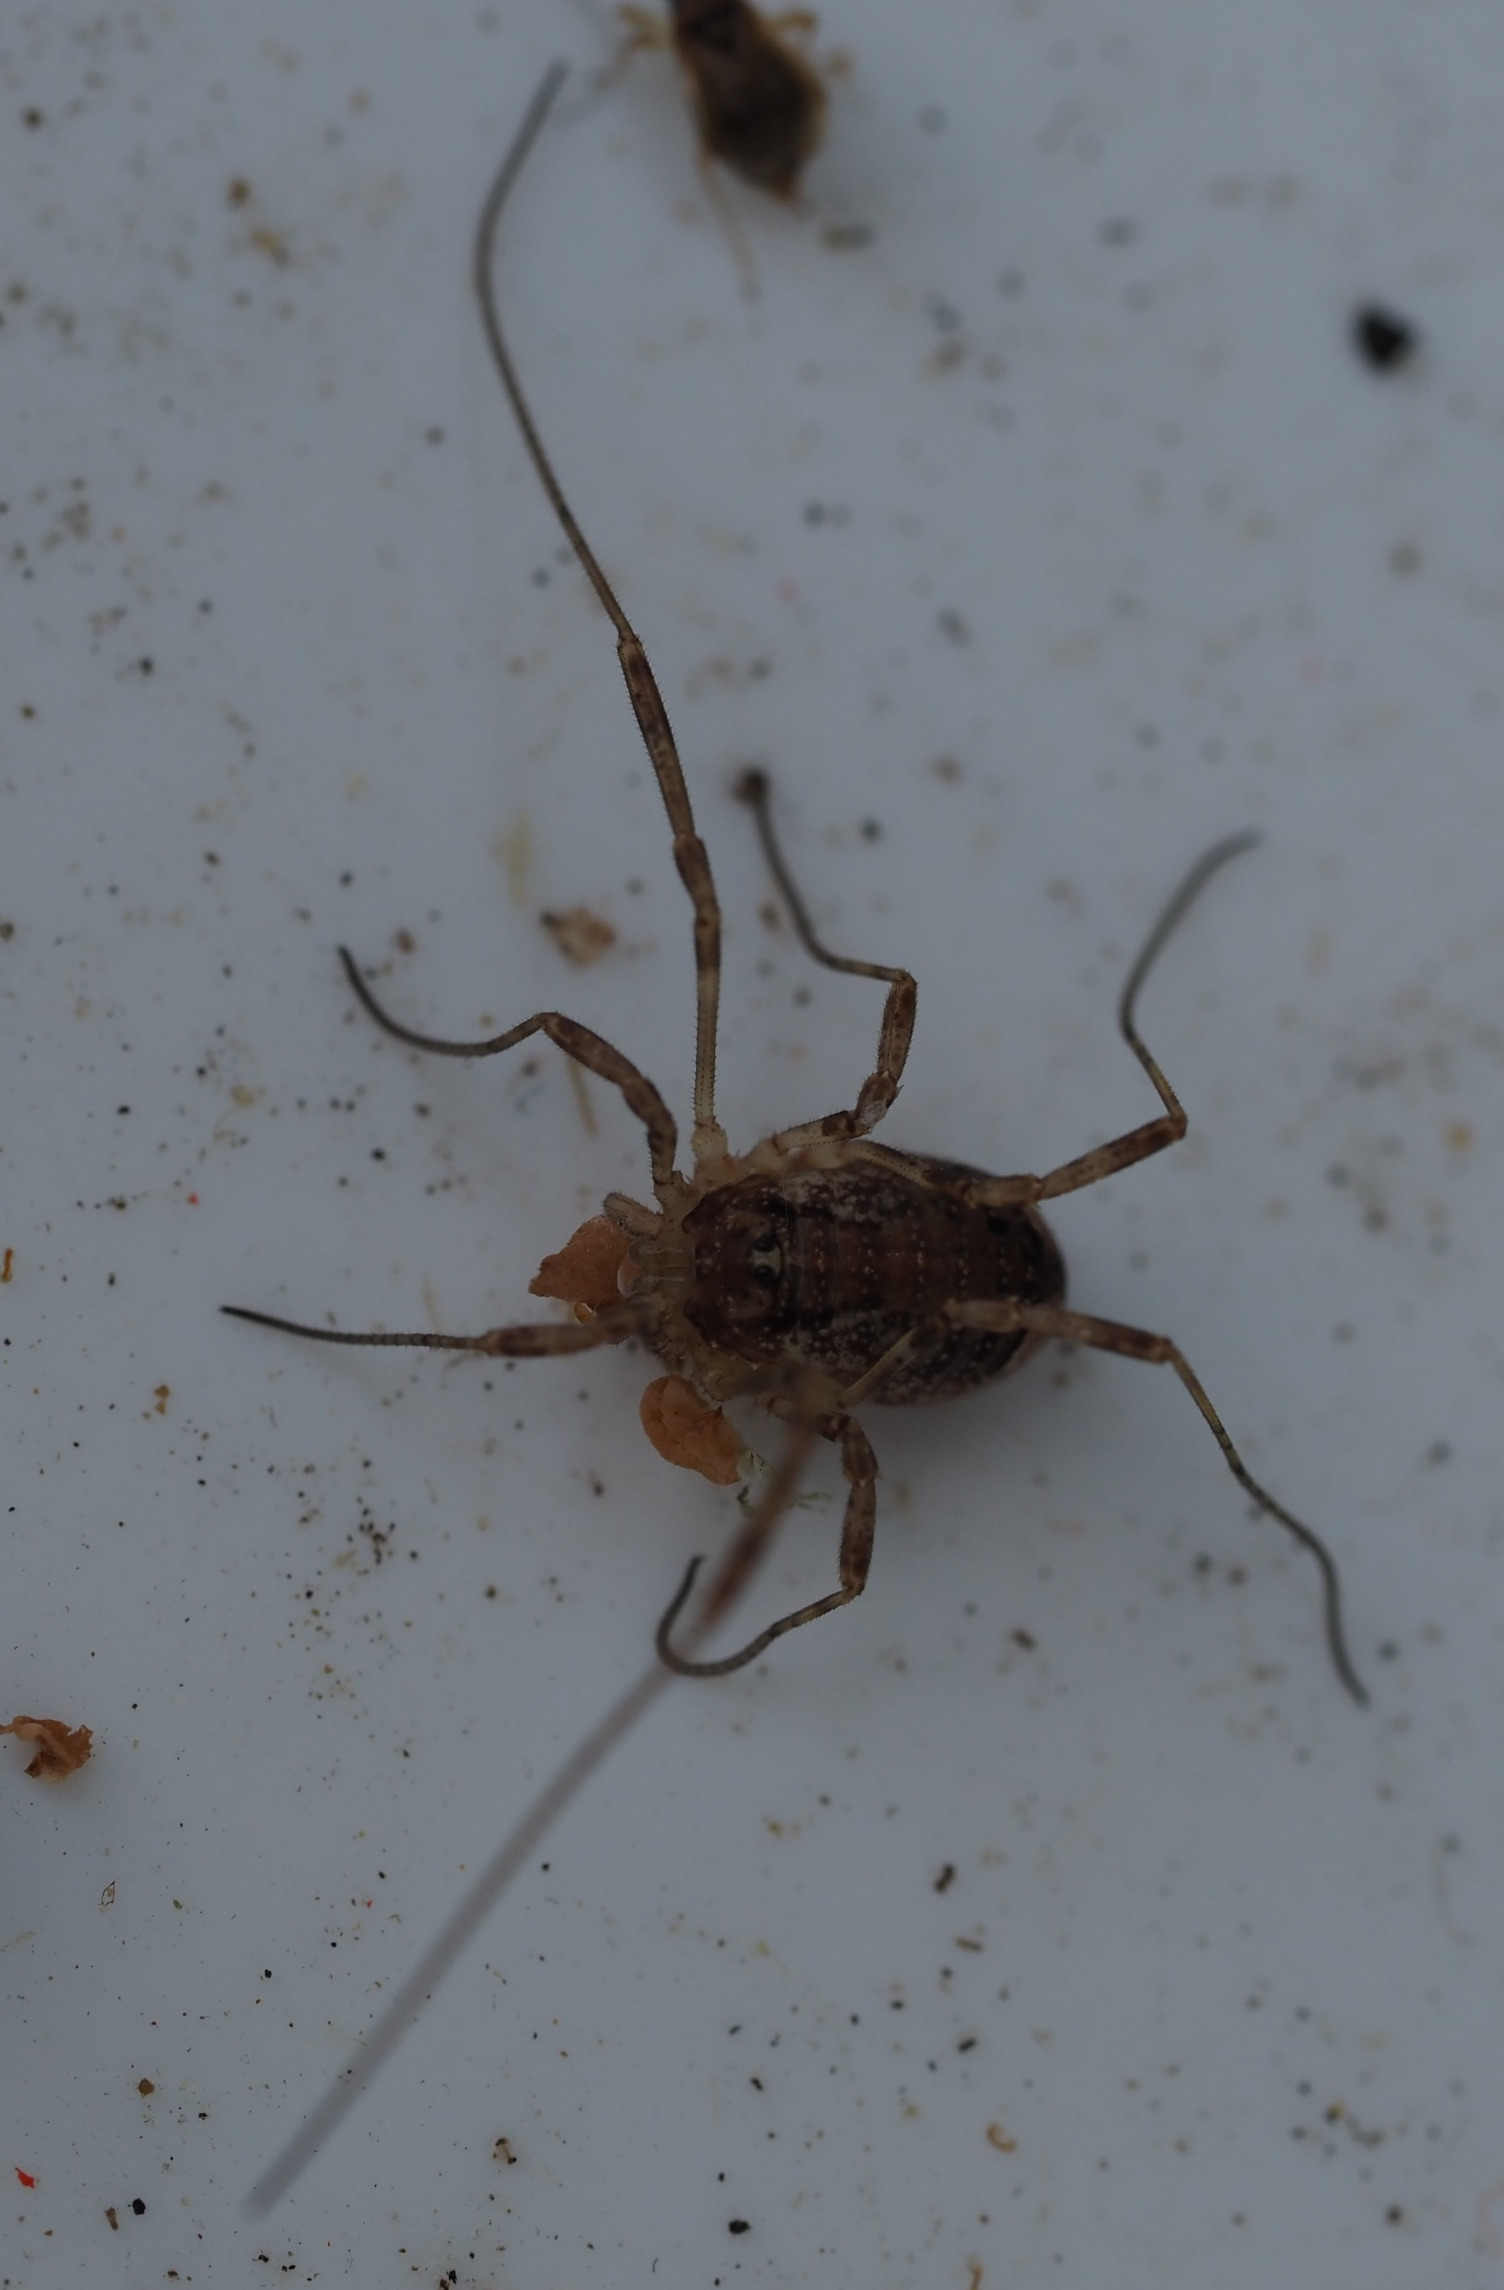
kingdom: Animalia
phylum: Arthropoda
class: Arachnida
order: Opiliones
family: Phalangiidae
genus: Paroligolophus
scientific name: Paroligolophus agrestis
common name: Hedemejer
